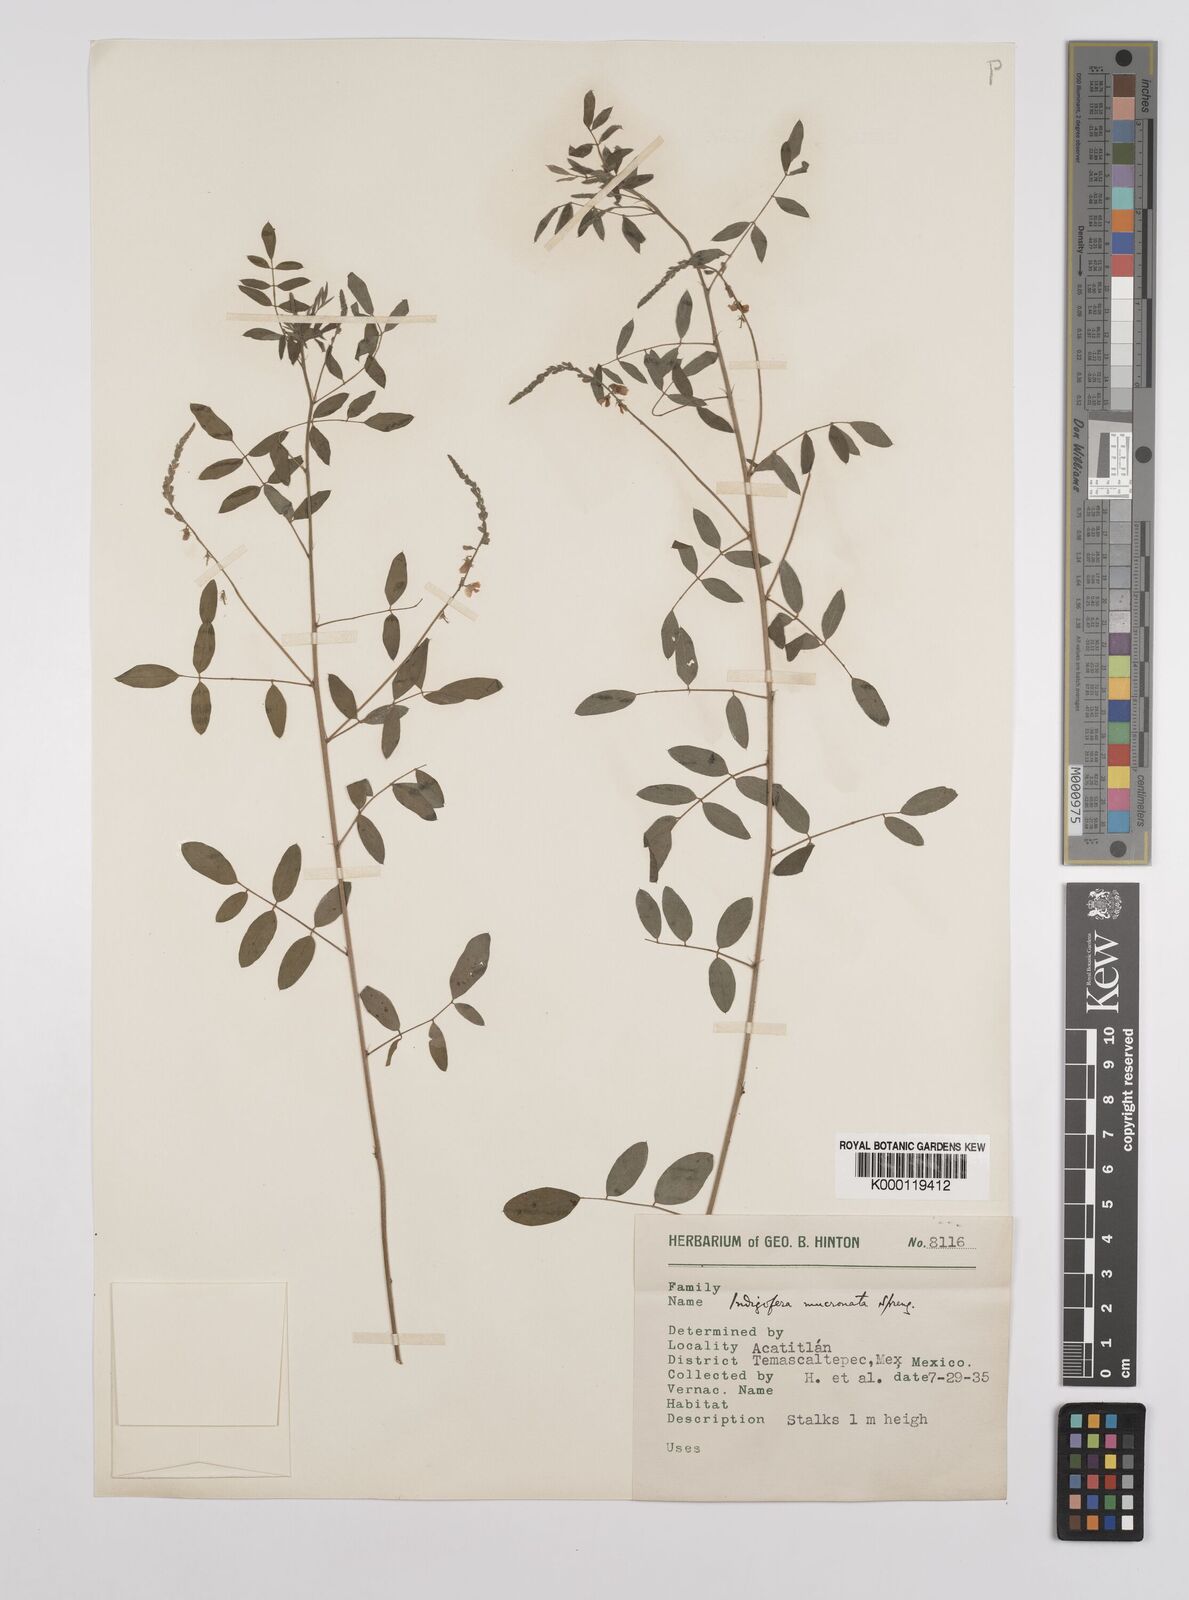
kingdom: Plantae
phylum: Tracheophyta
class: Magnoliopsida
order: Fabales
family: Fabaceae
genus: Indigofera
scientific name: Indigofera lespedezioides
